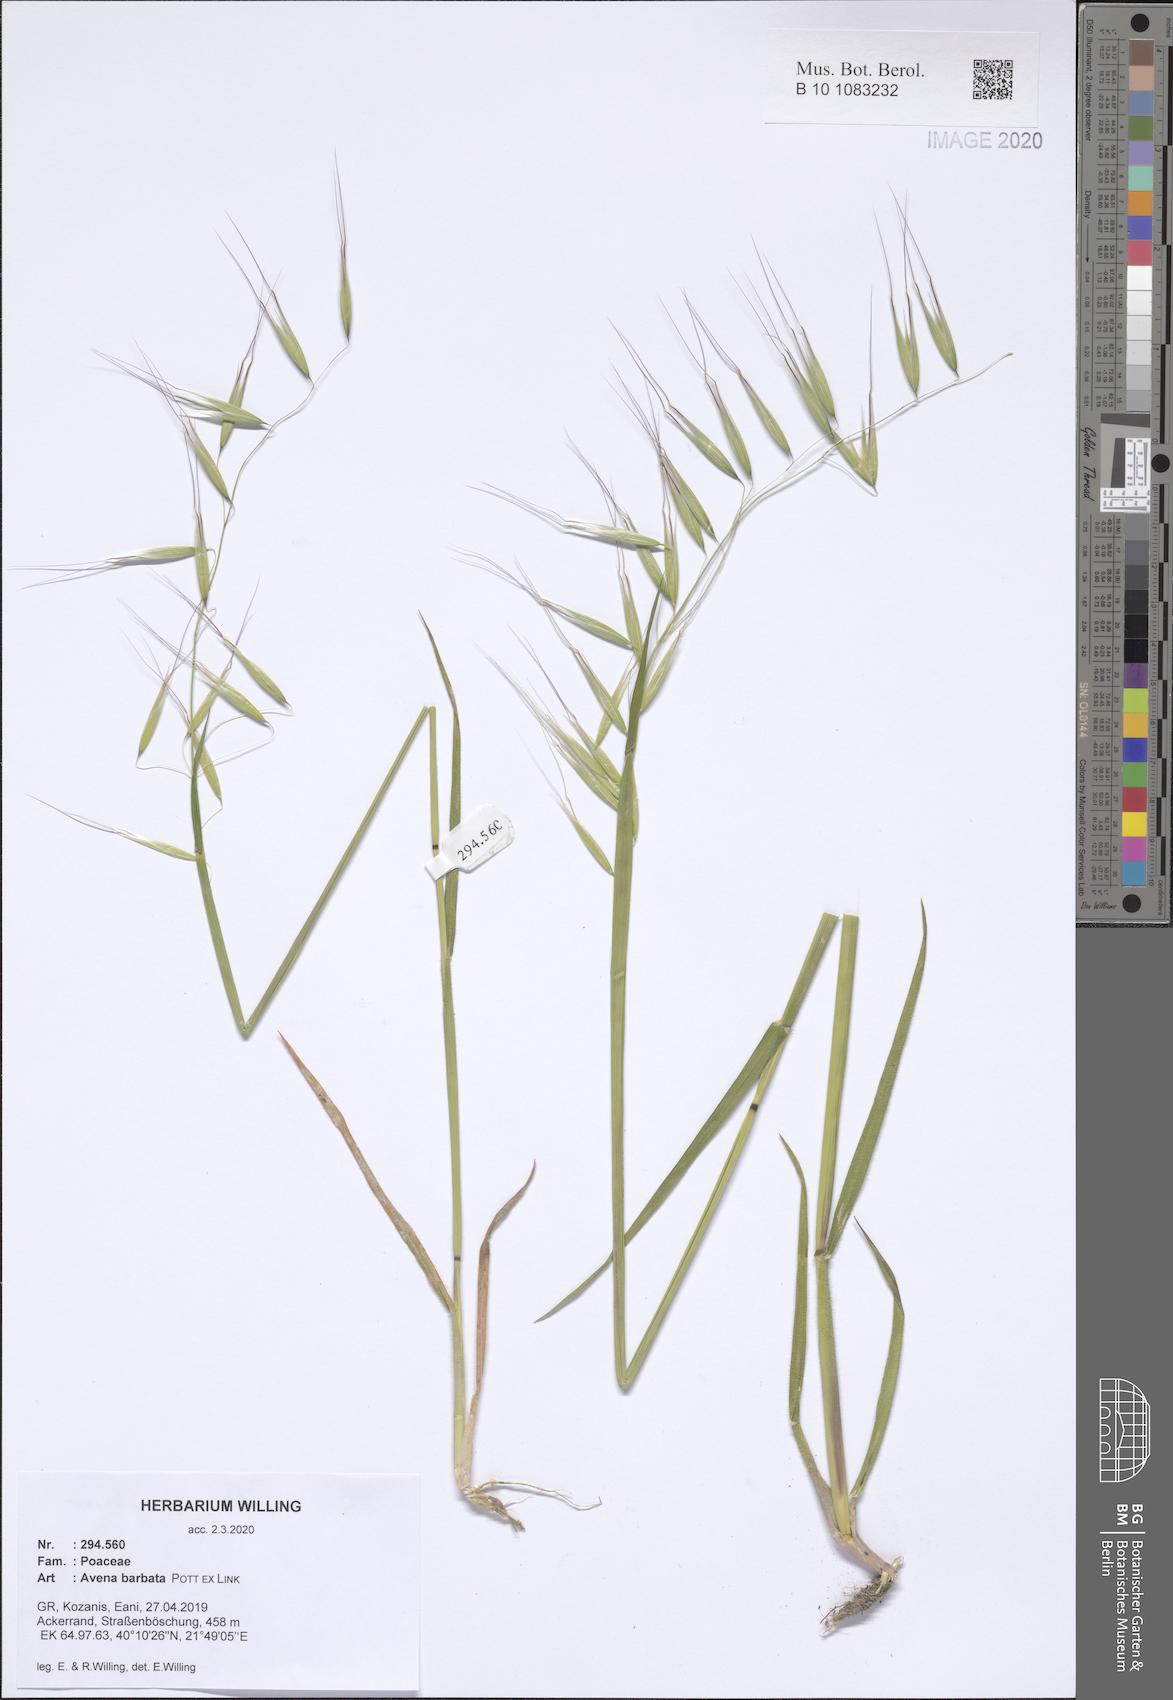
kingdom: Plantae
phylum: Tracheophyta
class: Liliopsida
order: Poales
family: Poaceae
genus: Avena
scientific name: Avena barbata
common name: Slender oat
